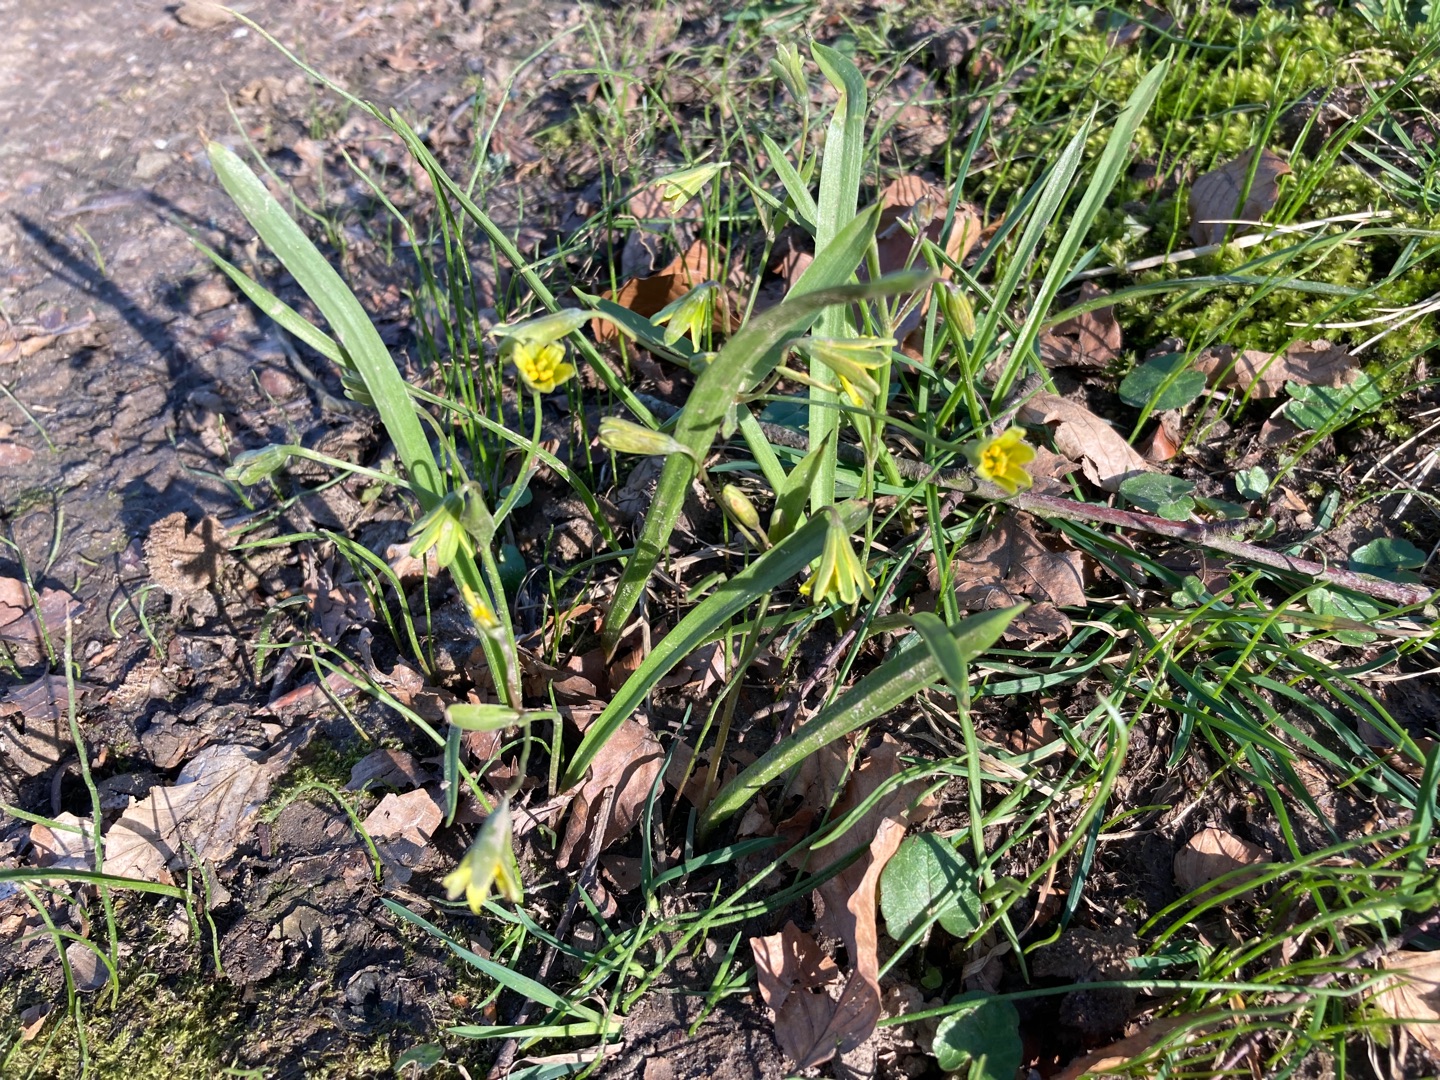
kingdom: Plantae
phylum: Tracheophyta
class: Liliopsida
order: Liliales
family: Liliaceae
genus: Gagea
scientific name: Gagea lutea
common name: Almindelig guldstjerne
